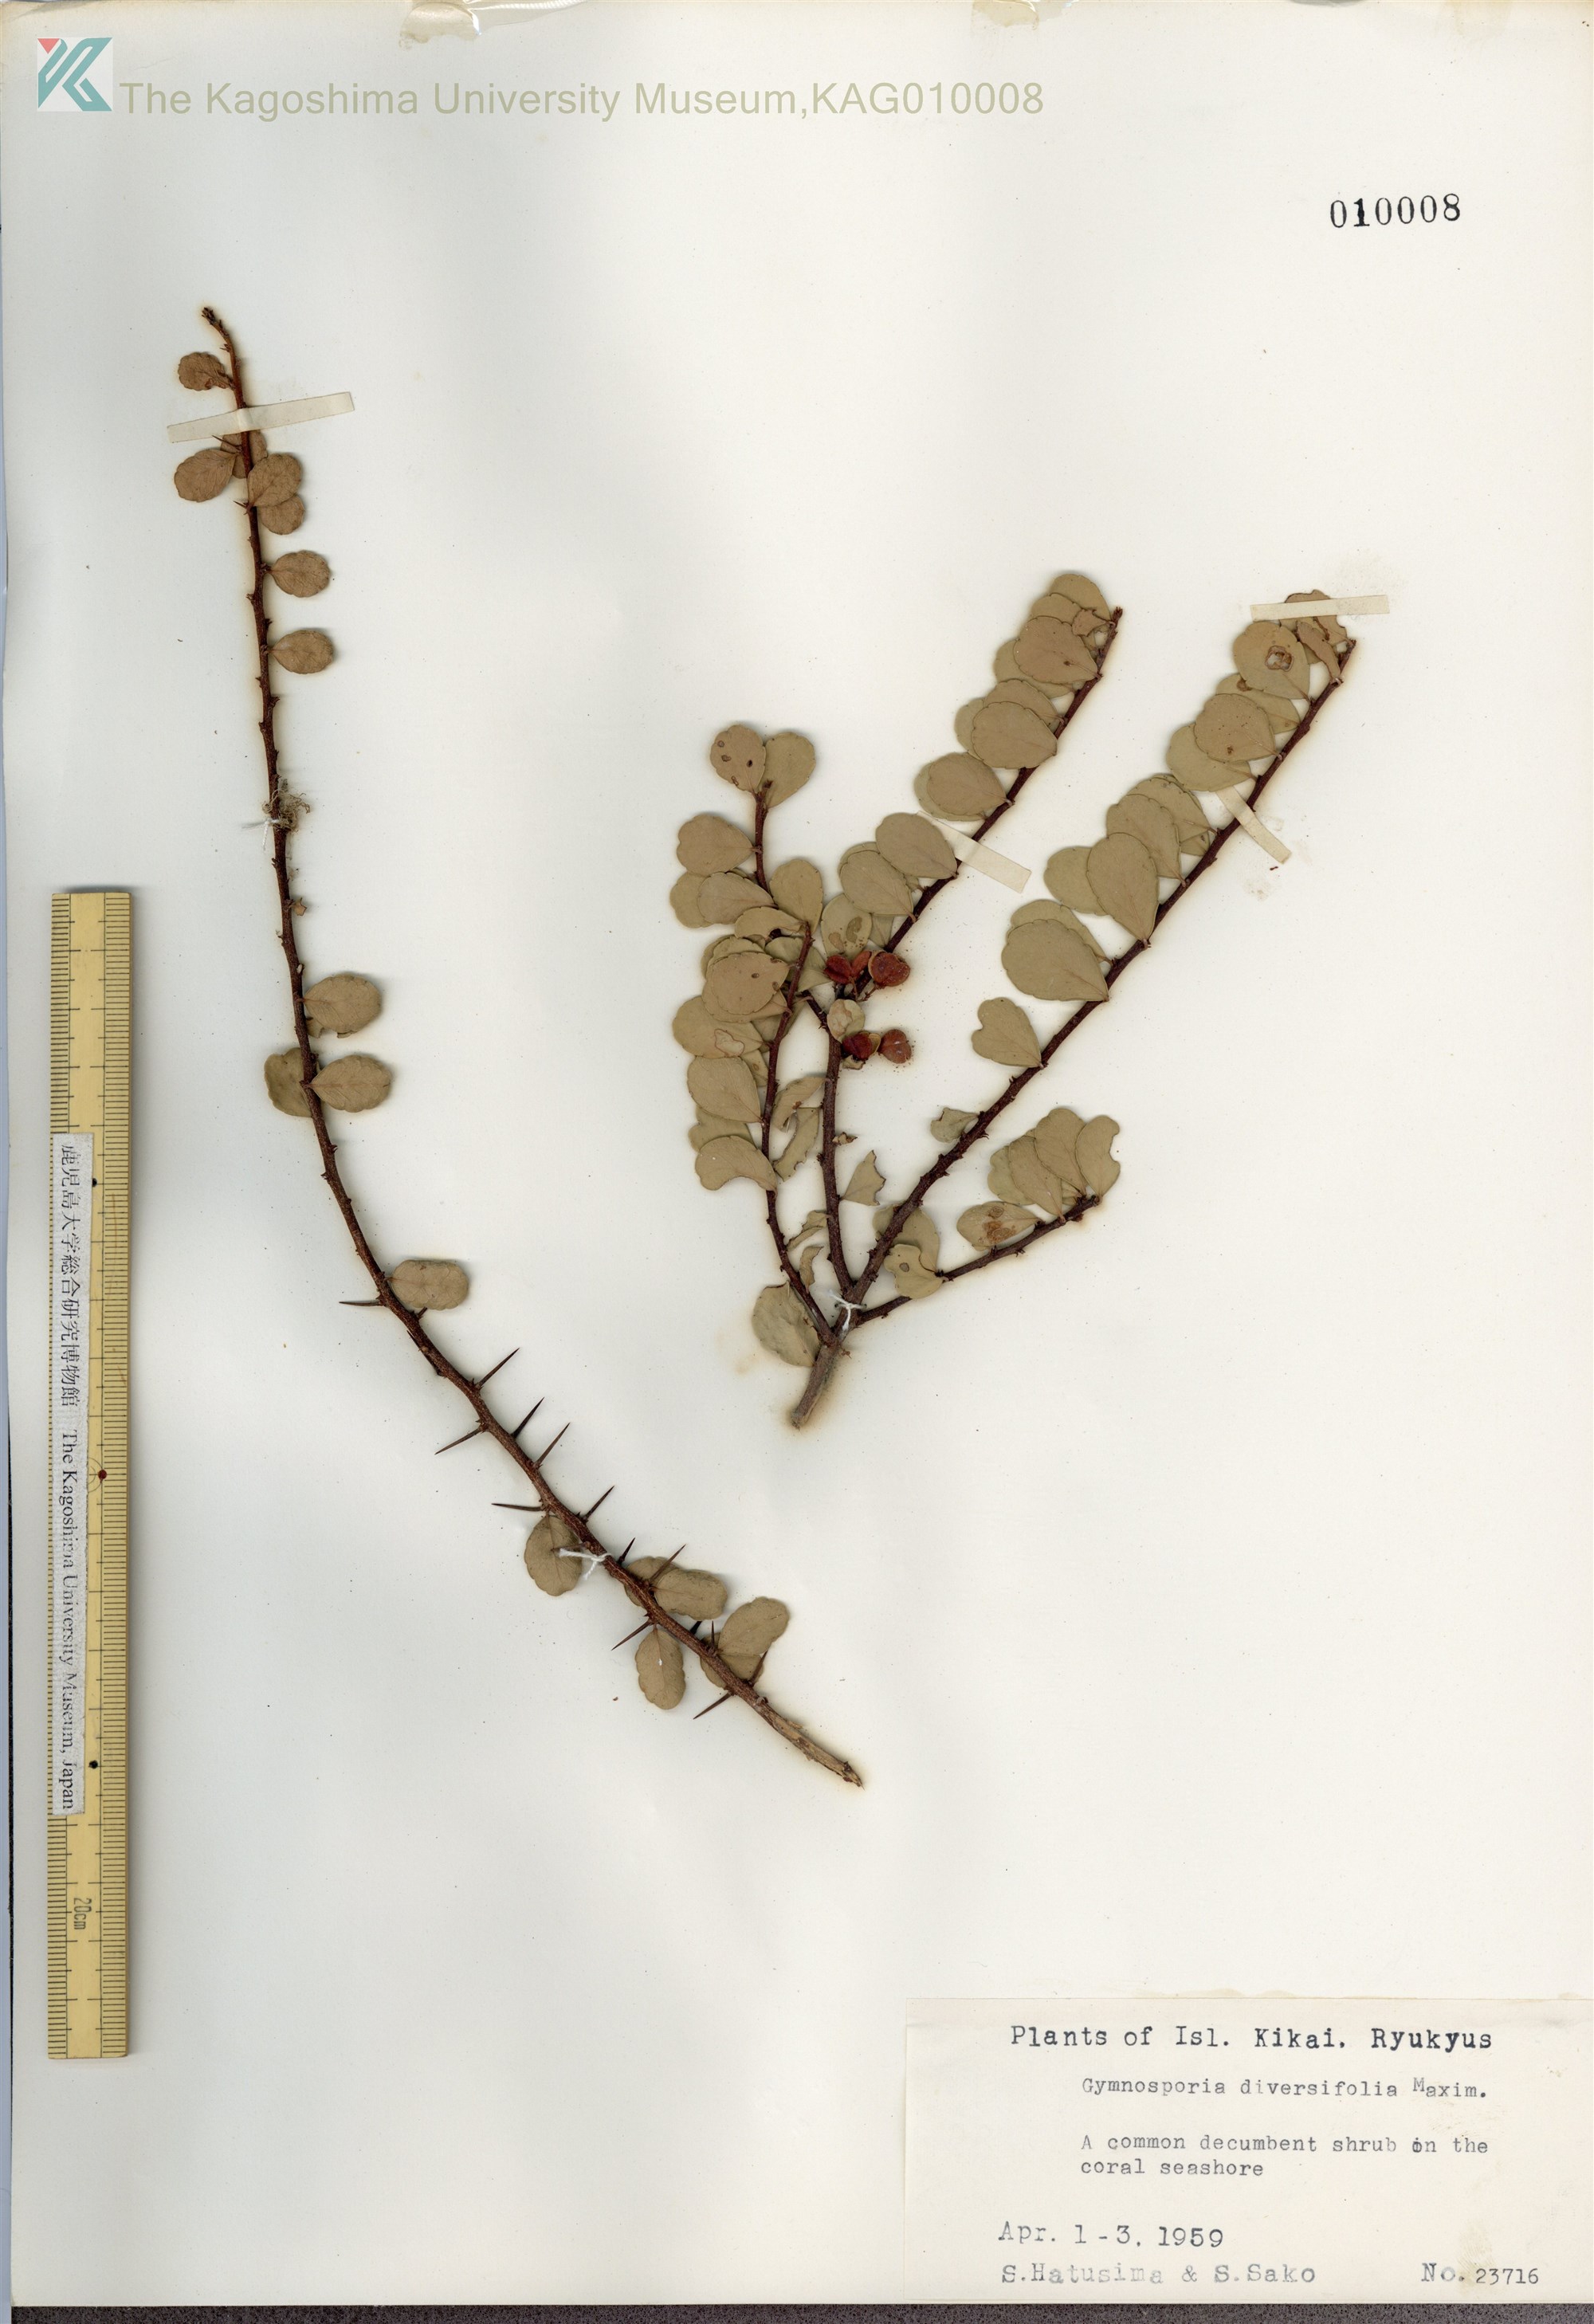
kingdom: Plantae
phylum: Tracheophyta
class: Magnoliopsida
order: Celastrales
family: Celastraceae
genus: Gymnosporia
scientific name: Gymnosporia diversifolia
